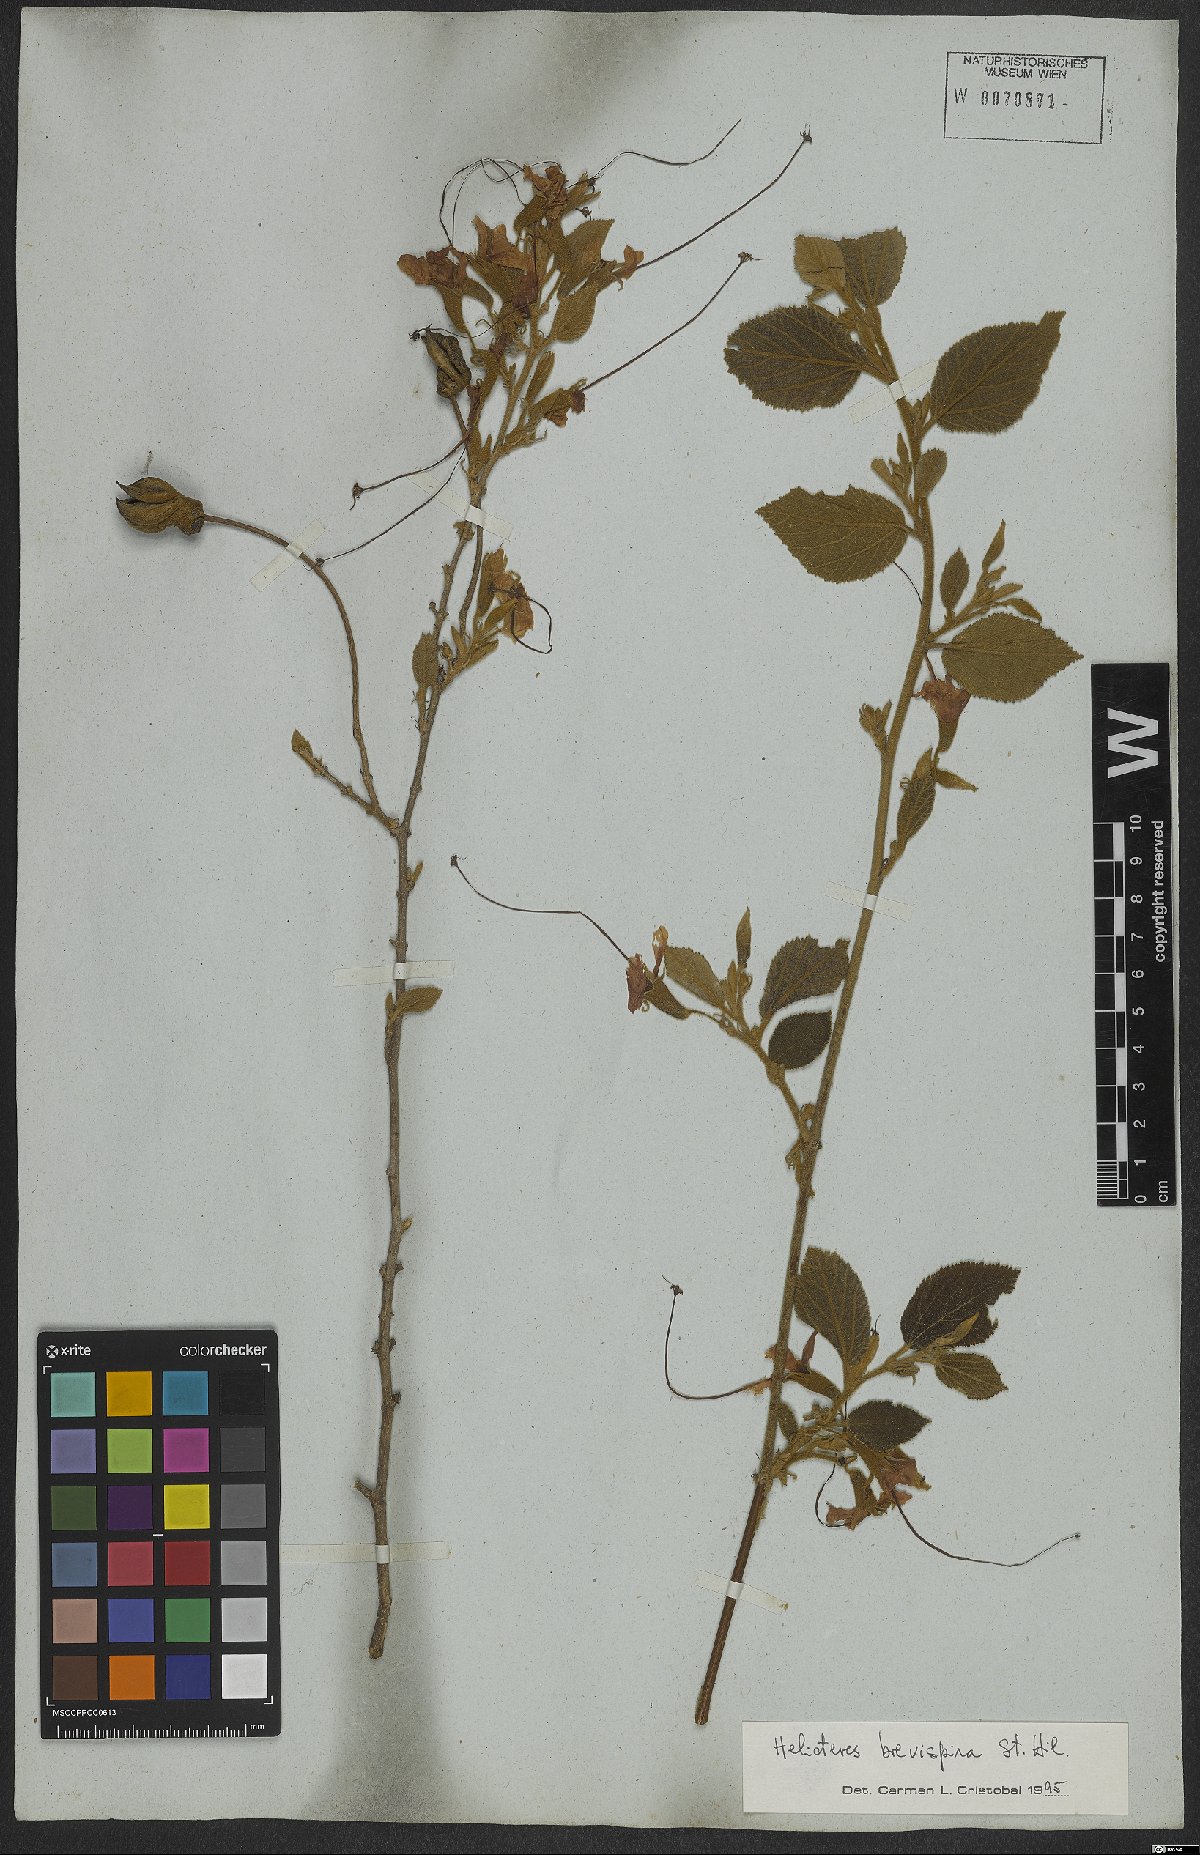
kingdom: Plantae
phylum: Tracheophyta
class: Magnoliopsida
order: Malvales
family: Malvaceae
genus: Helicteres
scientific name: Helicteres brevispira
